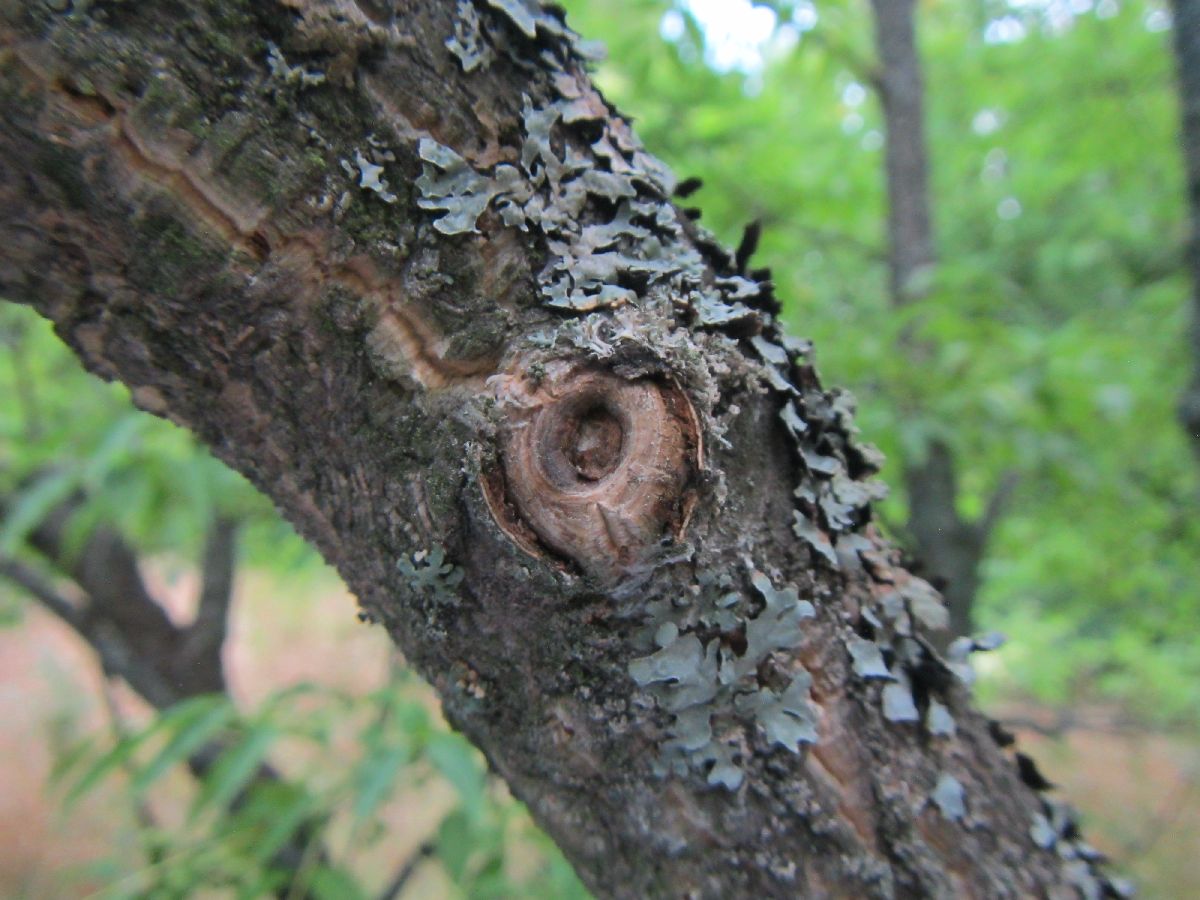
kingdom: Plantae
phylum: Tracheophyta
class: Magnoliopsida
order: Sapindales
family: Rutaceae
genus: Phellodendron
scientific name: Phellodendron amurense
